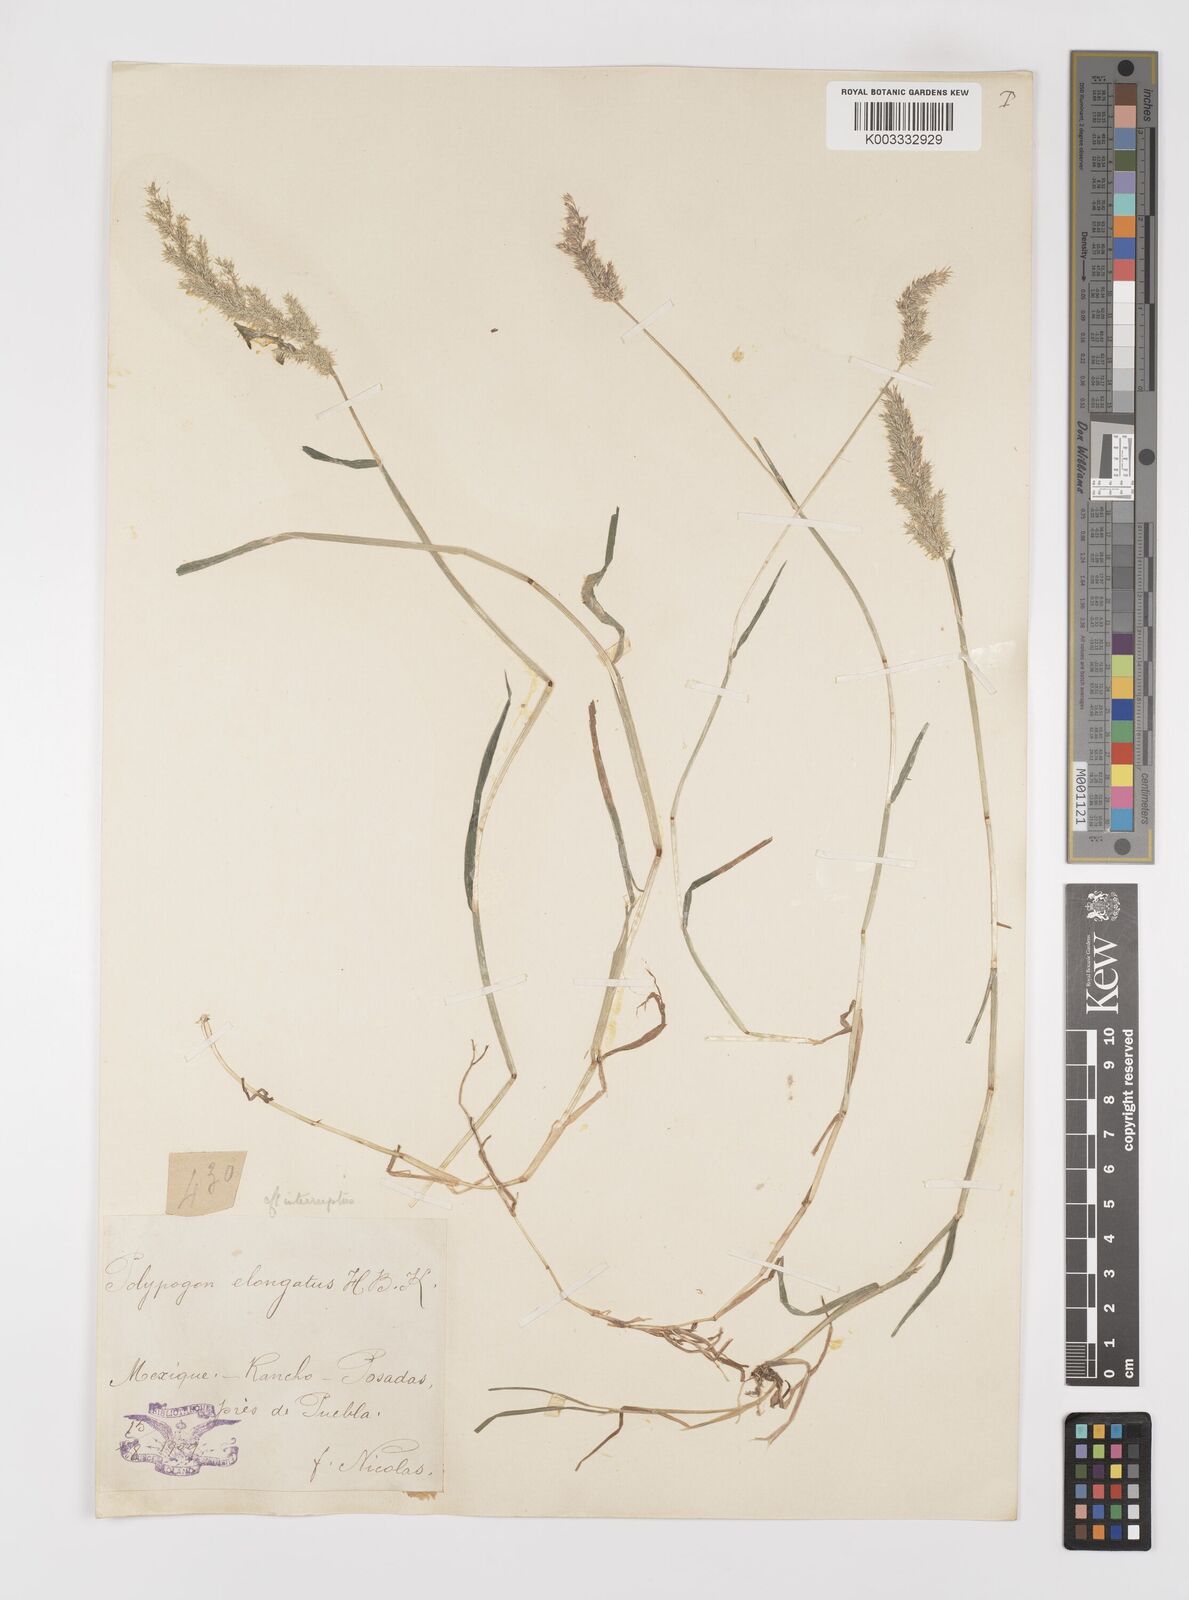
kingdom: Plantae
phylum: Tracheophyta
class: Liliopsida
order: Poales
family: Poaceae
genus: Polypogon
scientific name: Polypogon interruptus
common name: Ditch polypogon
